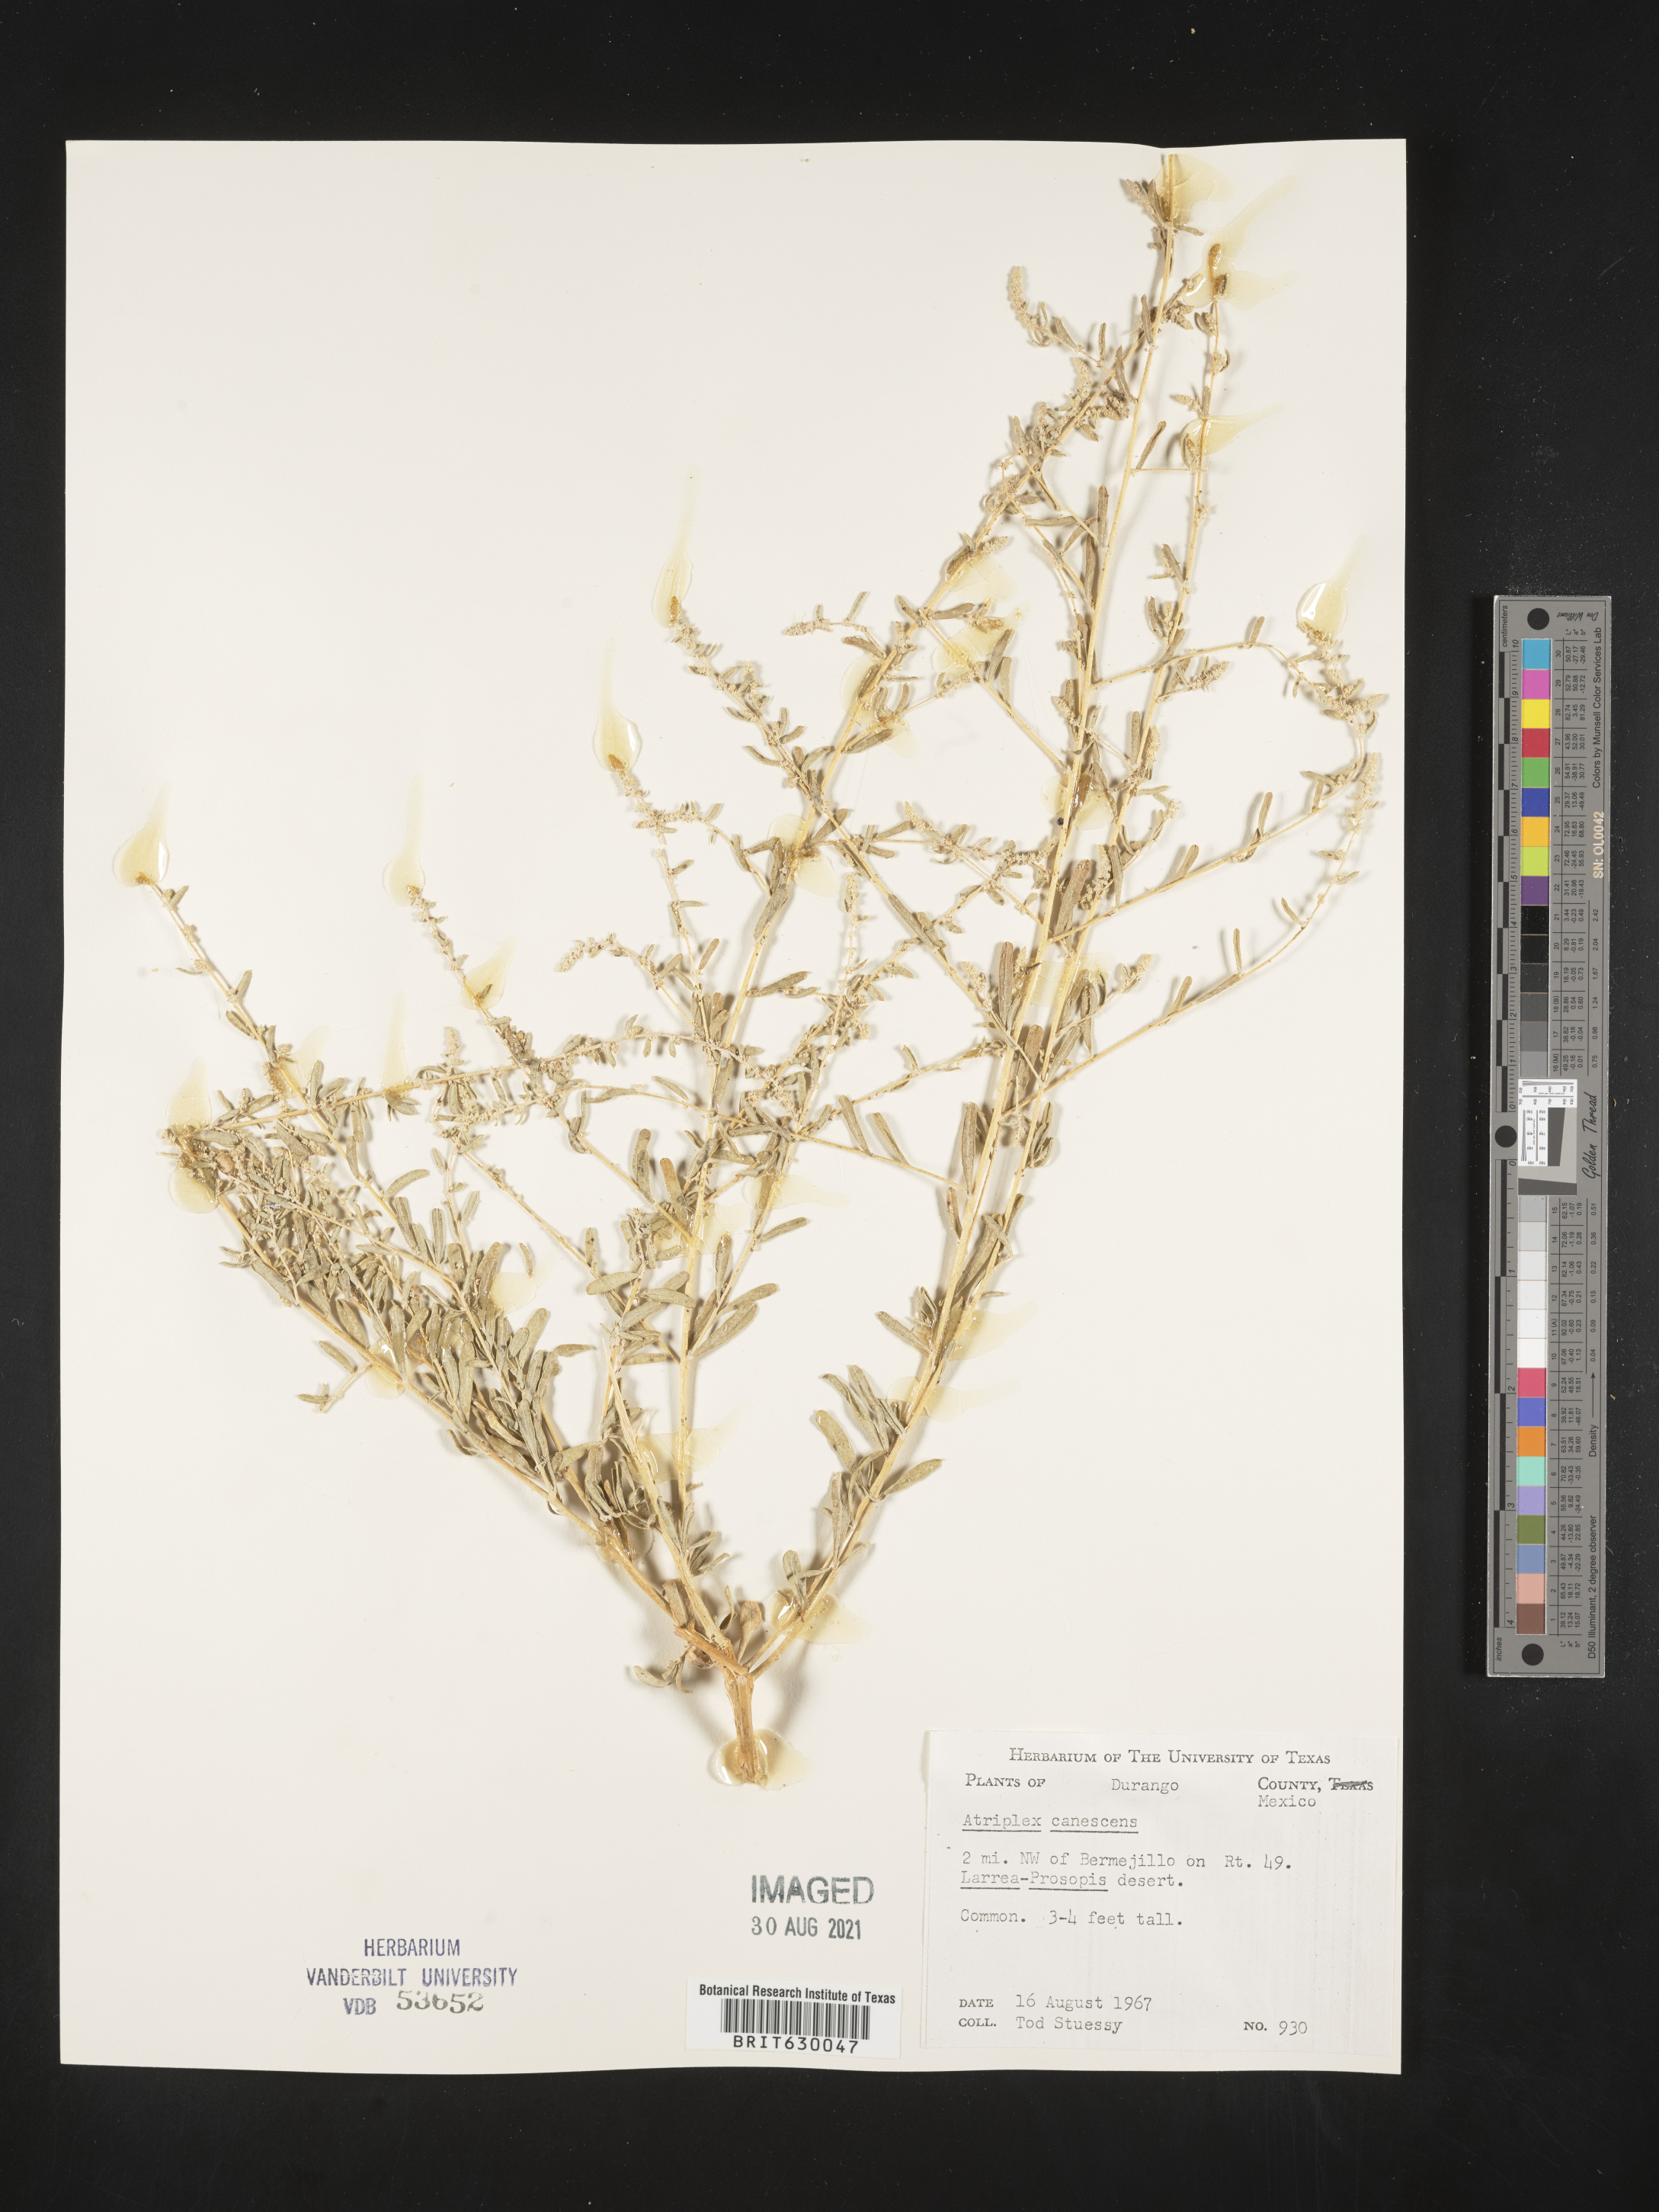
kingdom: Plantae
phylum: Tracheophyta
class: Magnoliopsida
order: Caryophyllales
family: Amaranthaceae
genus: Atriplex
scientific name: Atriplex
